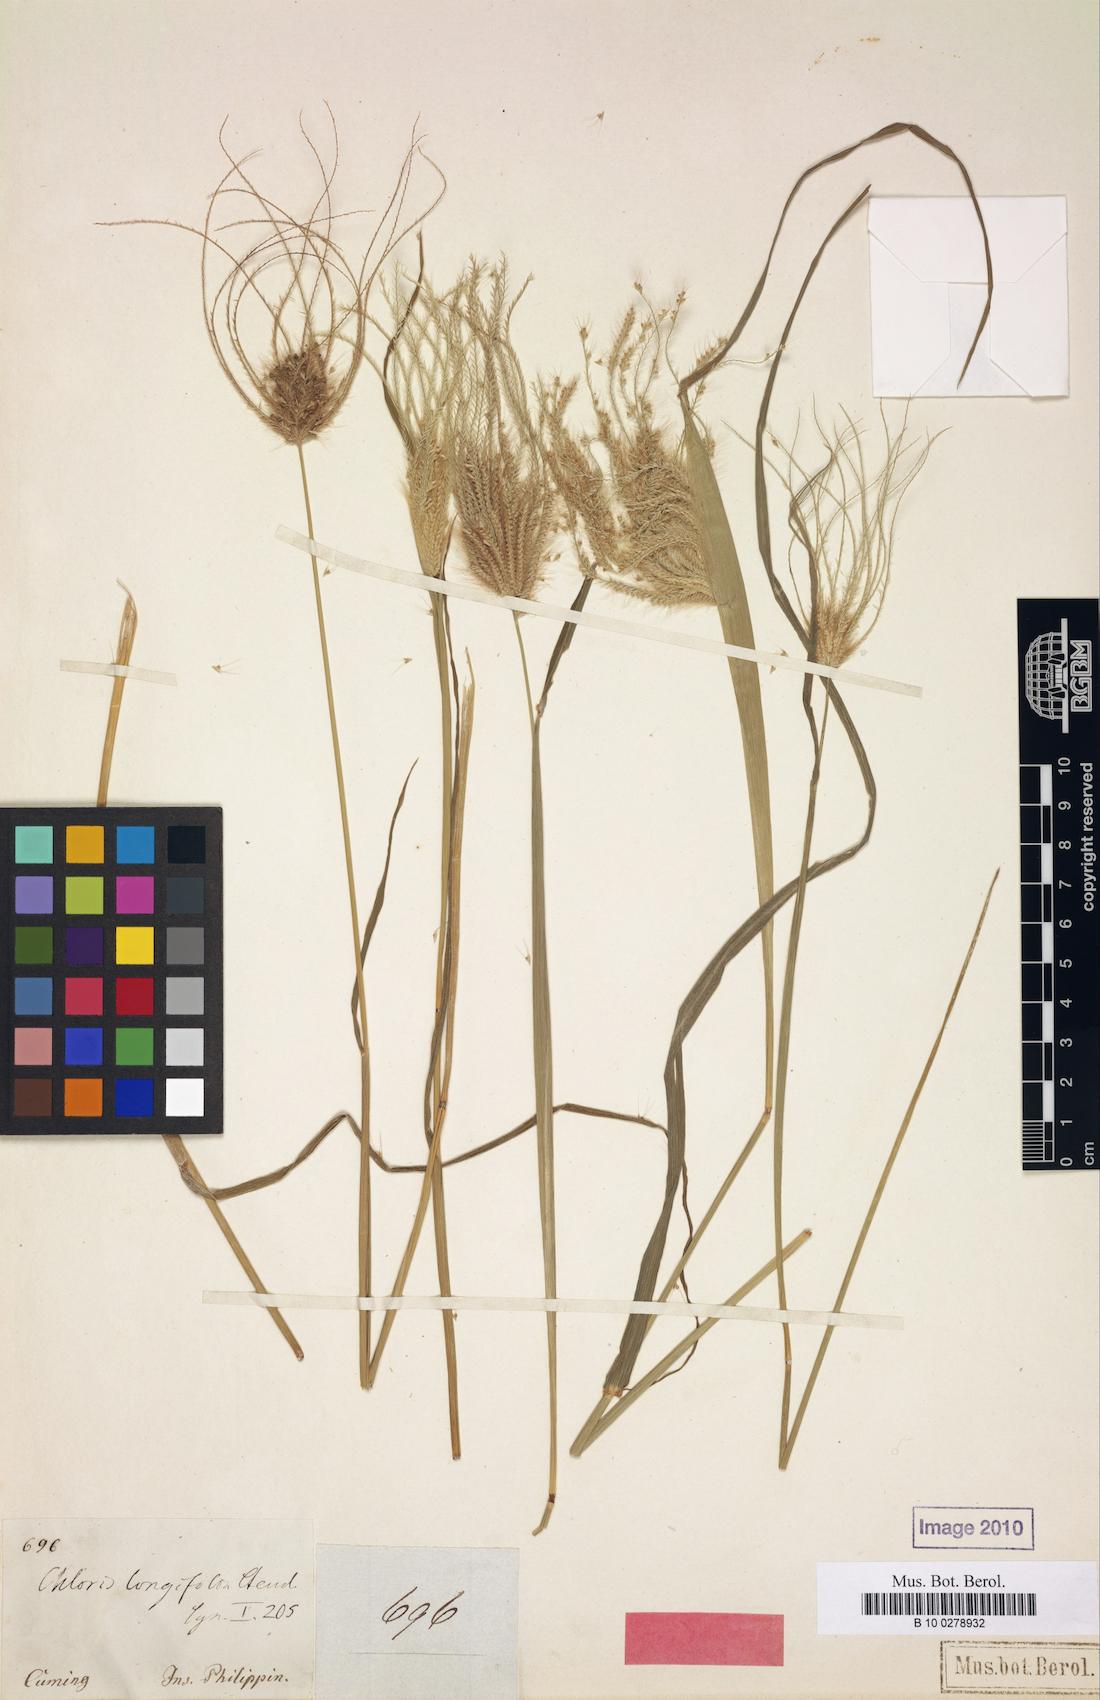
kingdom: Plantae
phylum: Tracheophyta
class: Liliopsida
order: Poales
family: Poaceae
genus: Chloris
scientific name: Chloris barbata
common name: Swollen fingergrass
